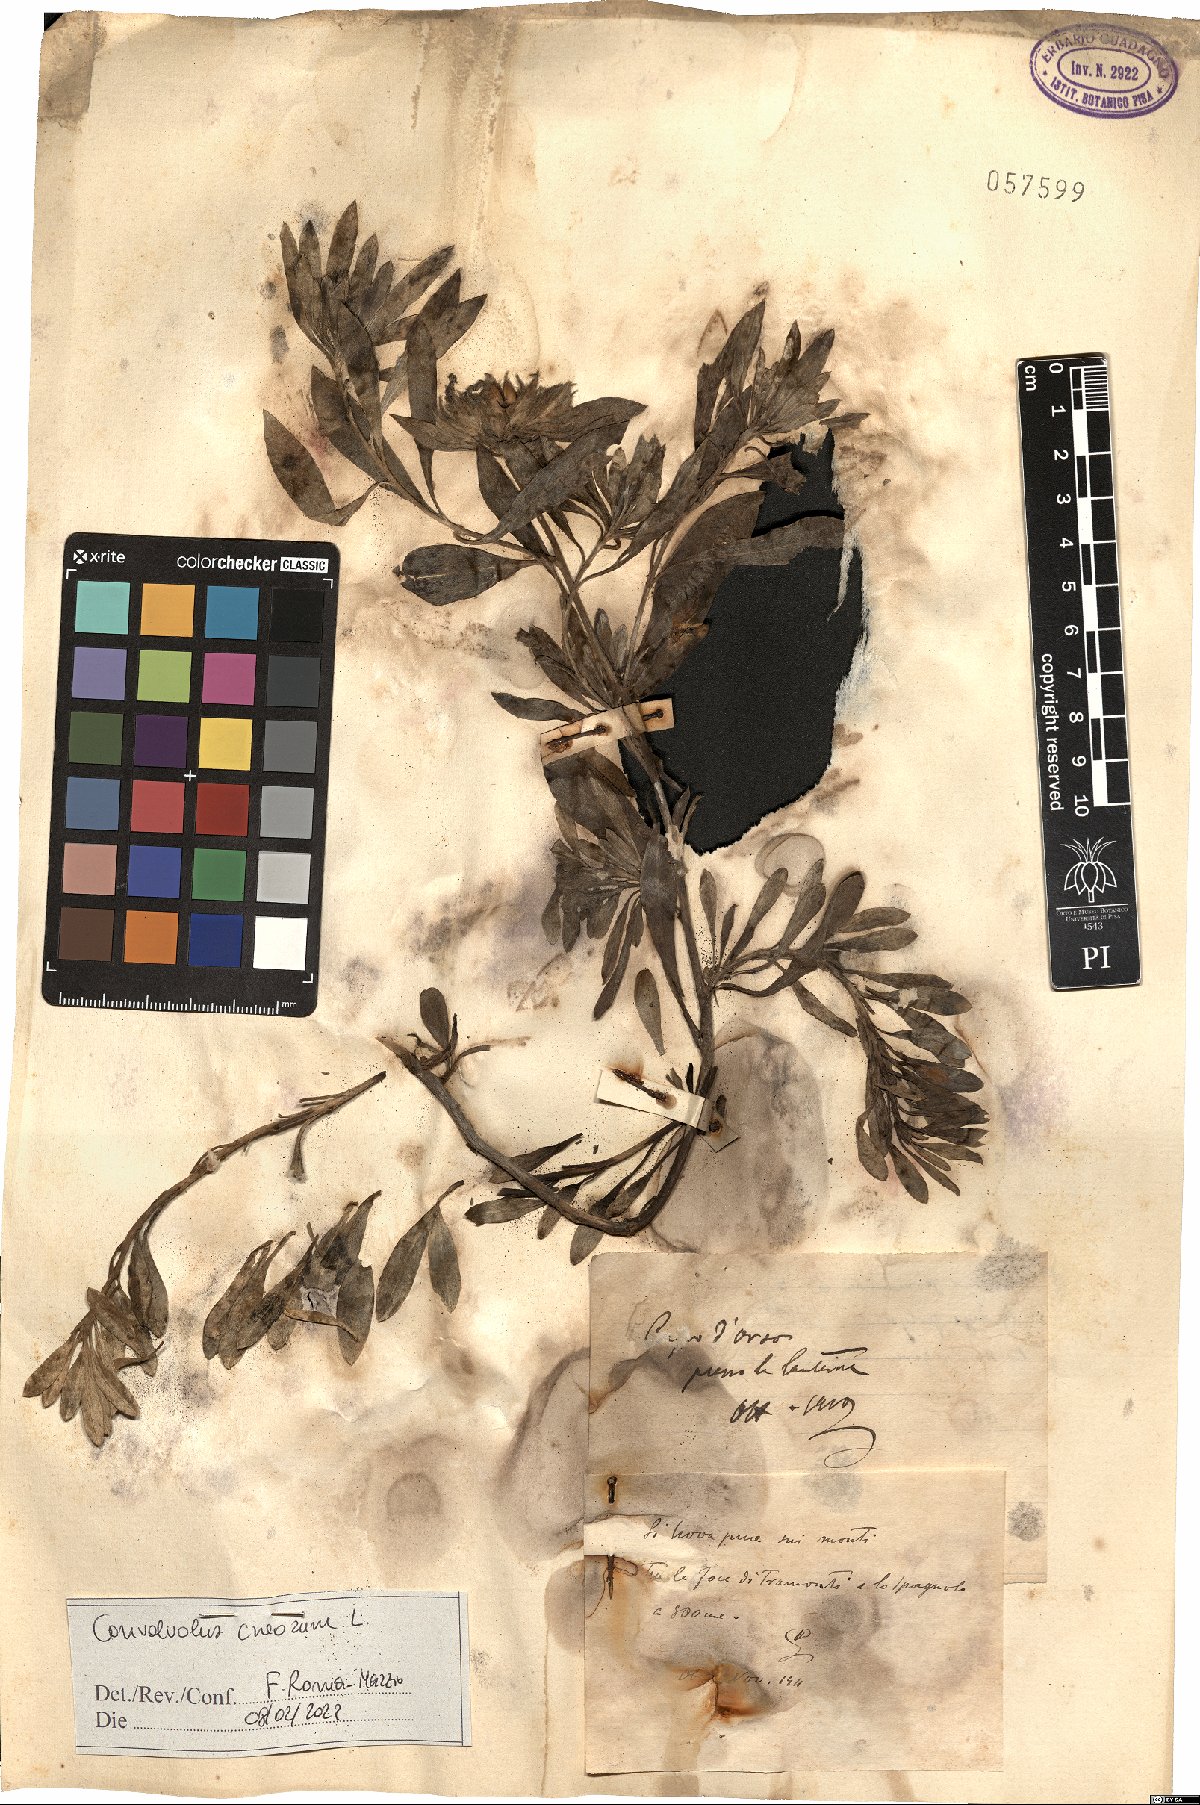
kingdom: Plantae
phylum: Tracheophyta
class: Magnoliopsida
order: Solanales
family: Convolvulaceae
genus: Convolvulus
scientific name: Convolvulus cneorum
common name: Silverbush
